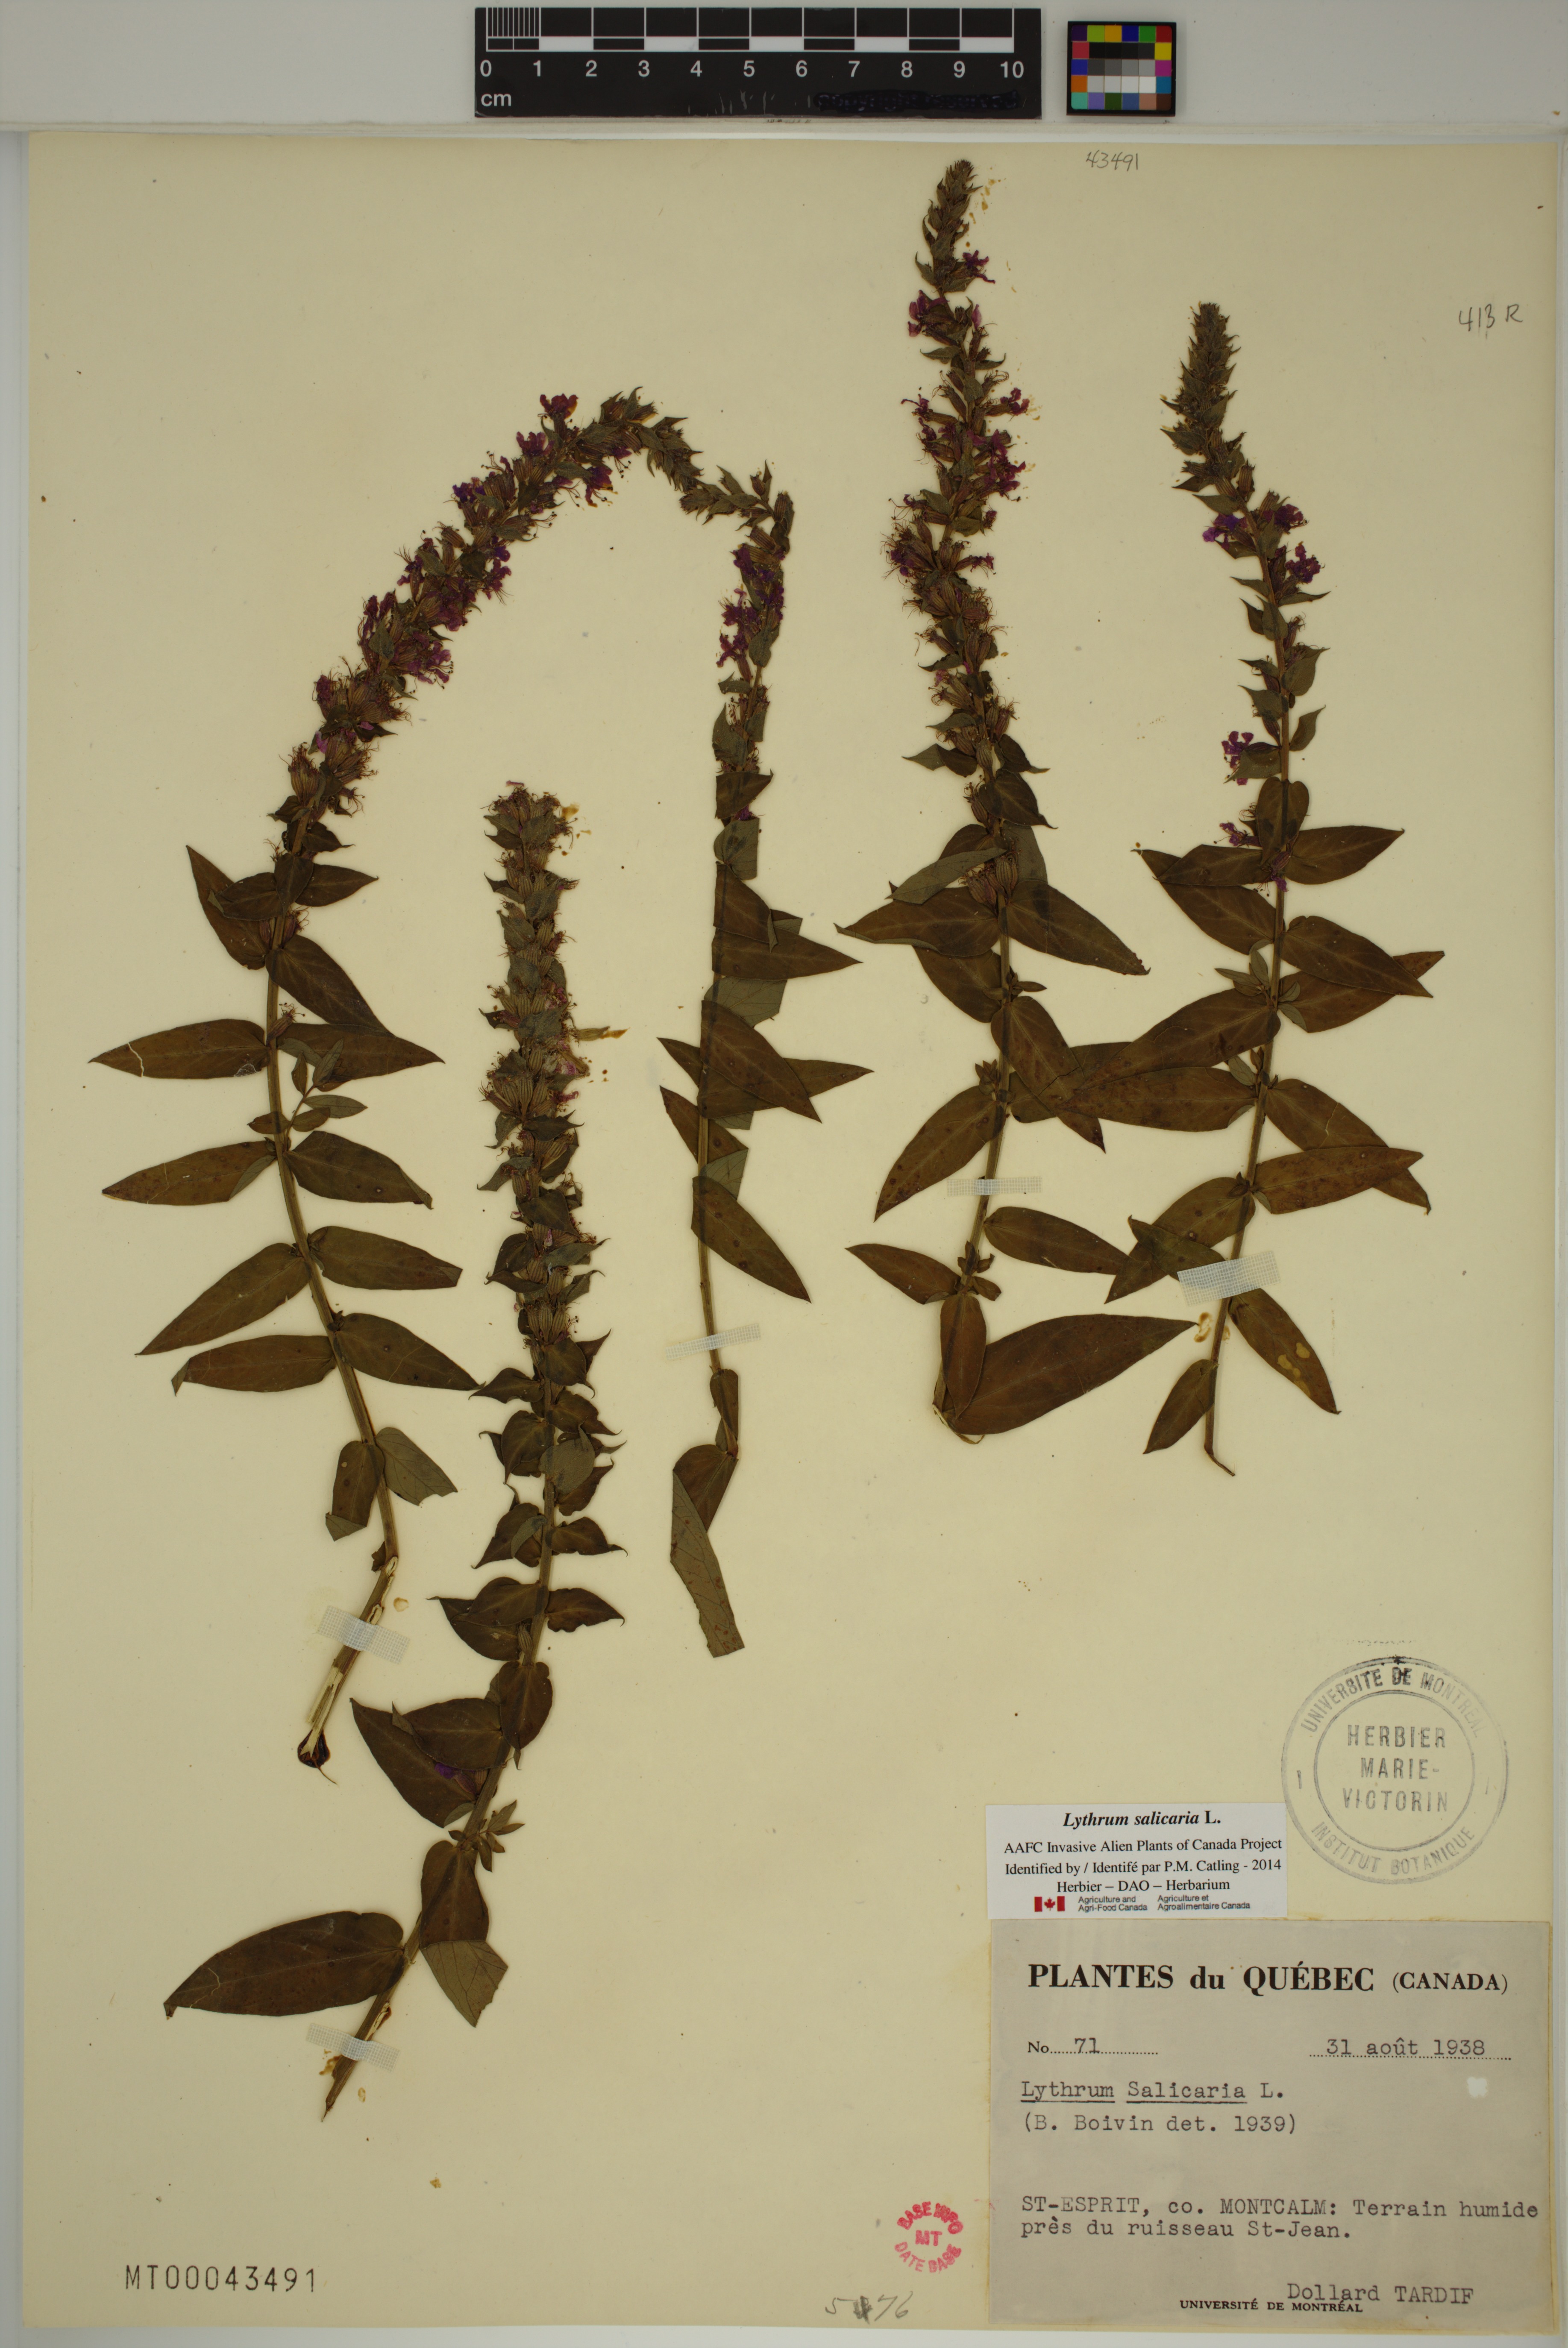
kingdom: Plantae
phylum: Tracheophyta
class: Magnoliopsida
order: Myrtales
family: Lythraceae
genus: Lythrum
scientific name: Lythrum salicaria
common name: Purple loosestrife
